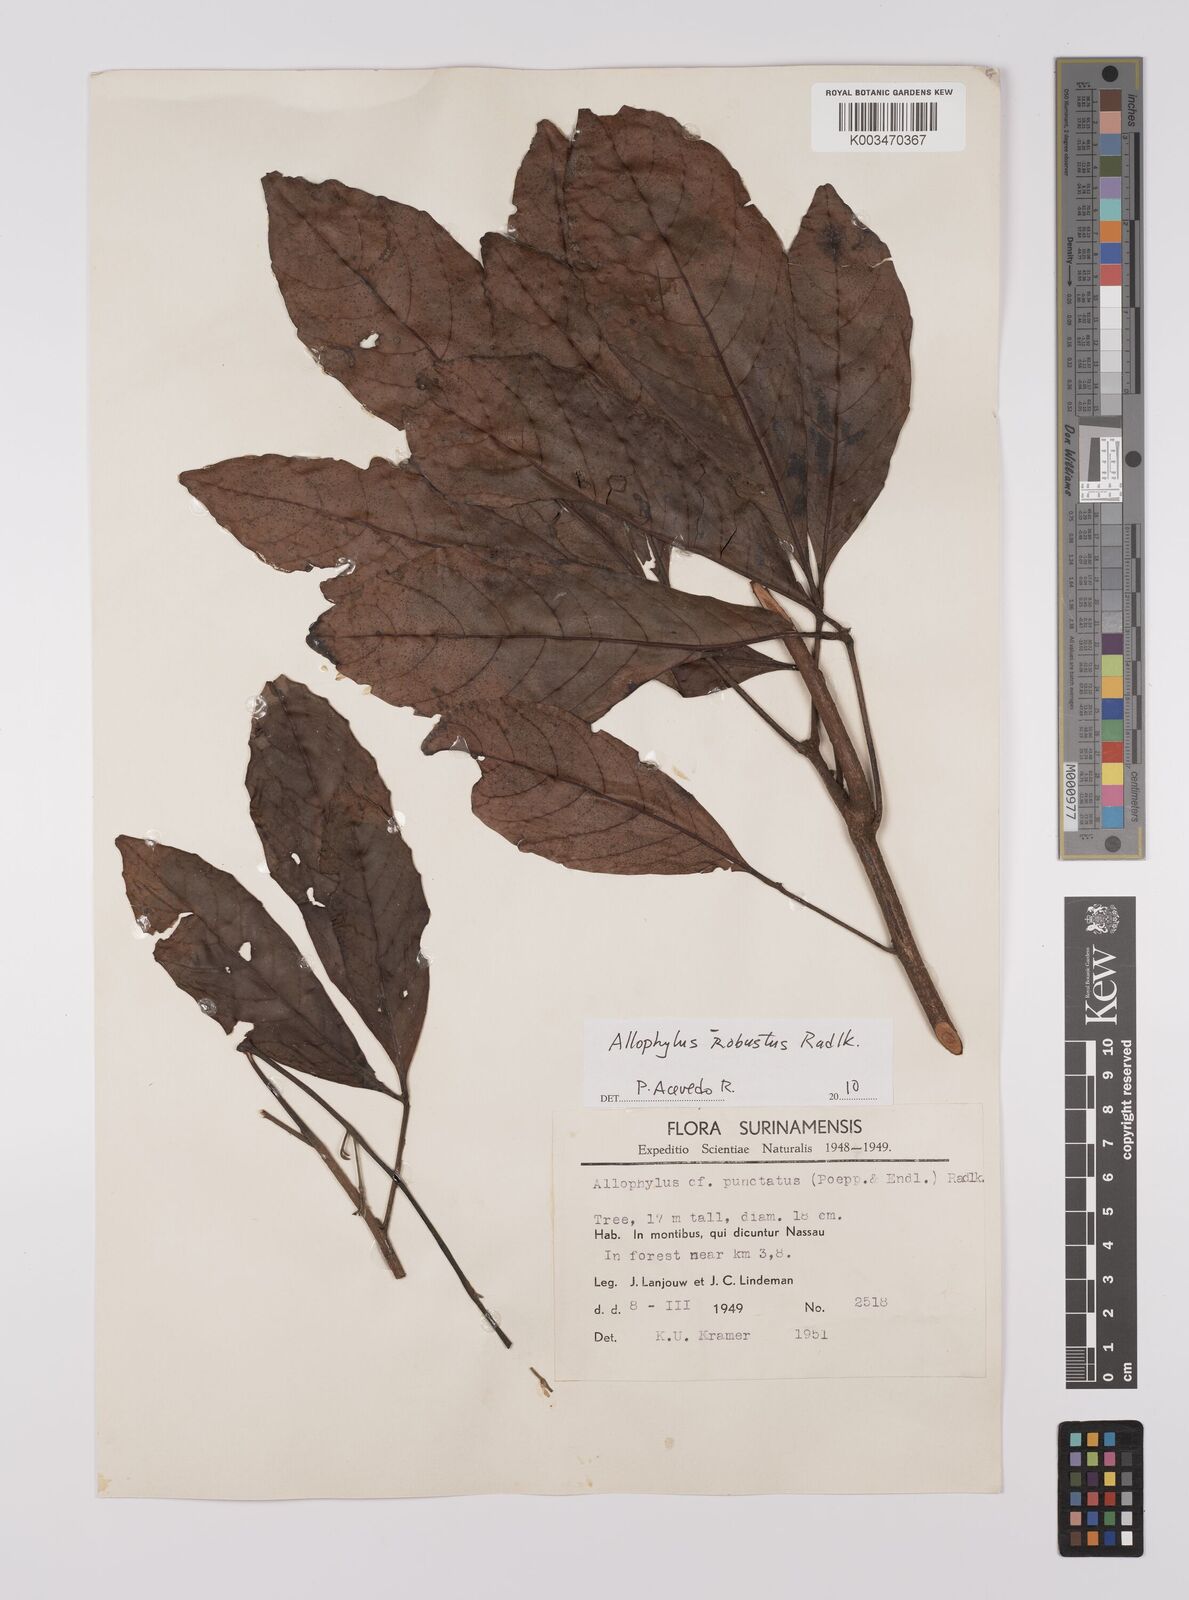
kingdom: Plantae
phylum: Tracheophyta
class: Magnoliopsida
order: Sapindales
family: Sapindaceae
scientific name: Sapindaceae
